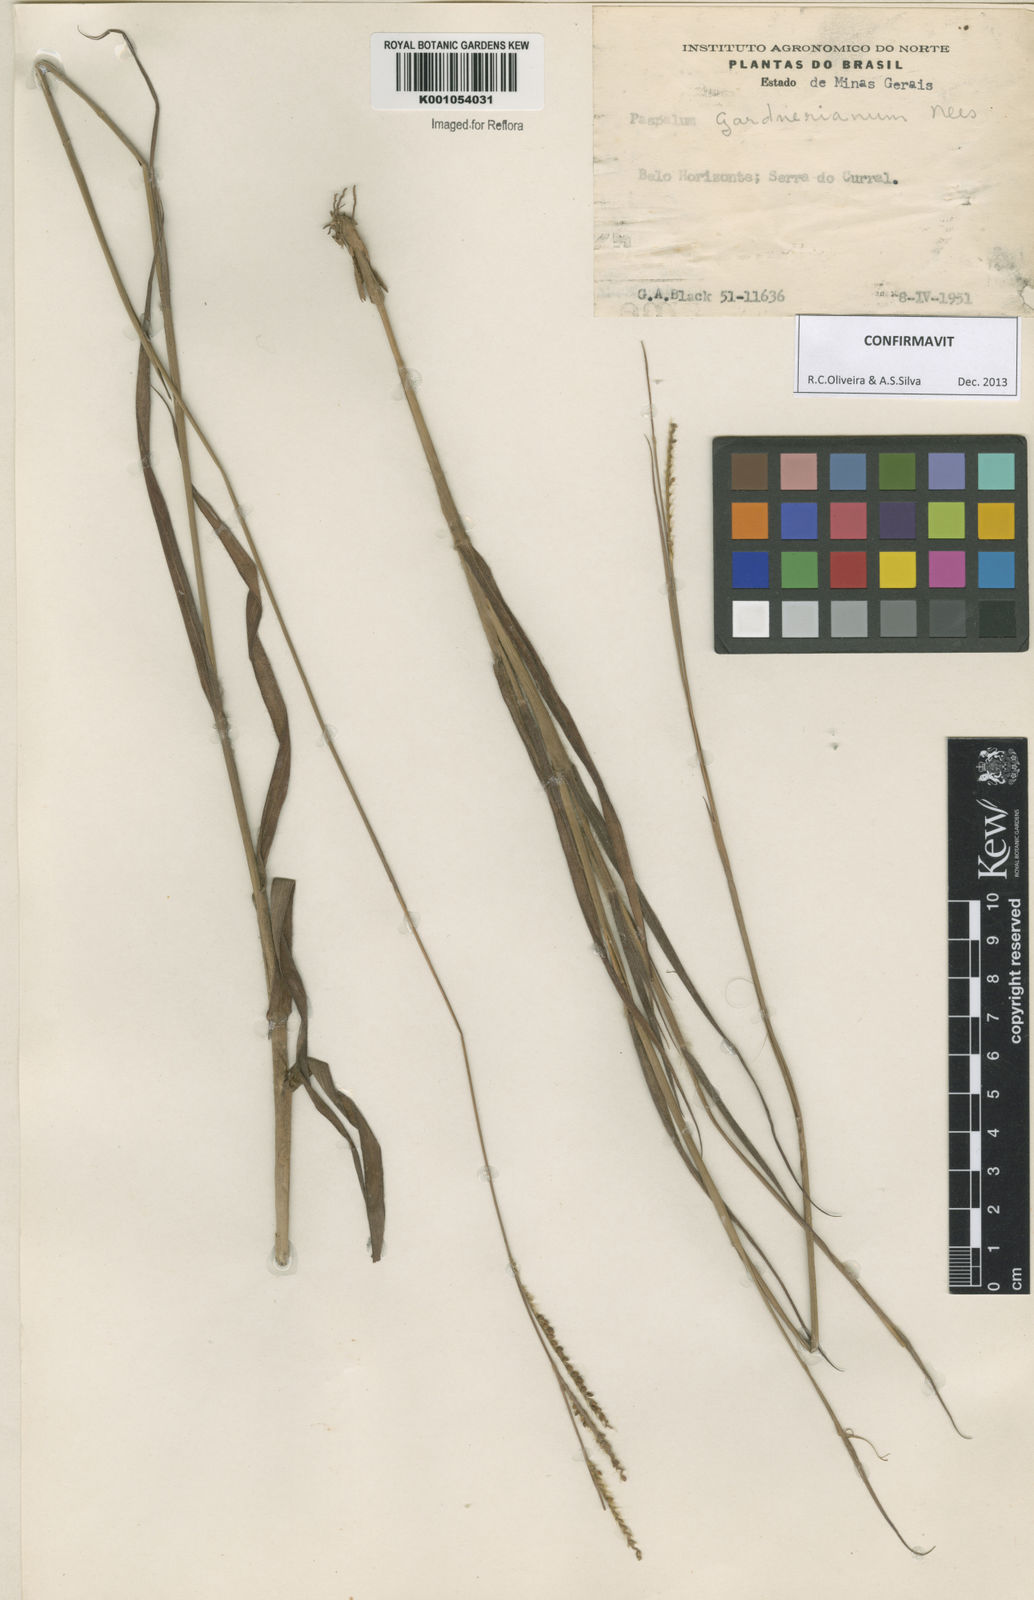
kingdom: Plantae
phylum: Tracheophyta
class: Liliopsida
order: Poales
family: Poaceae
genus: Paspalum
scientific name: Paspalum gardnerianum
